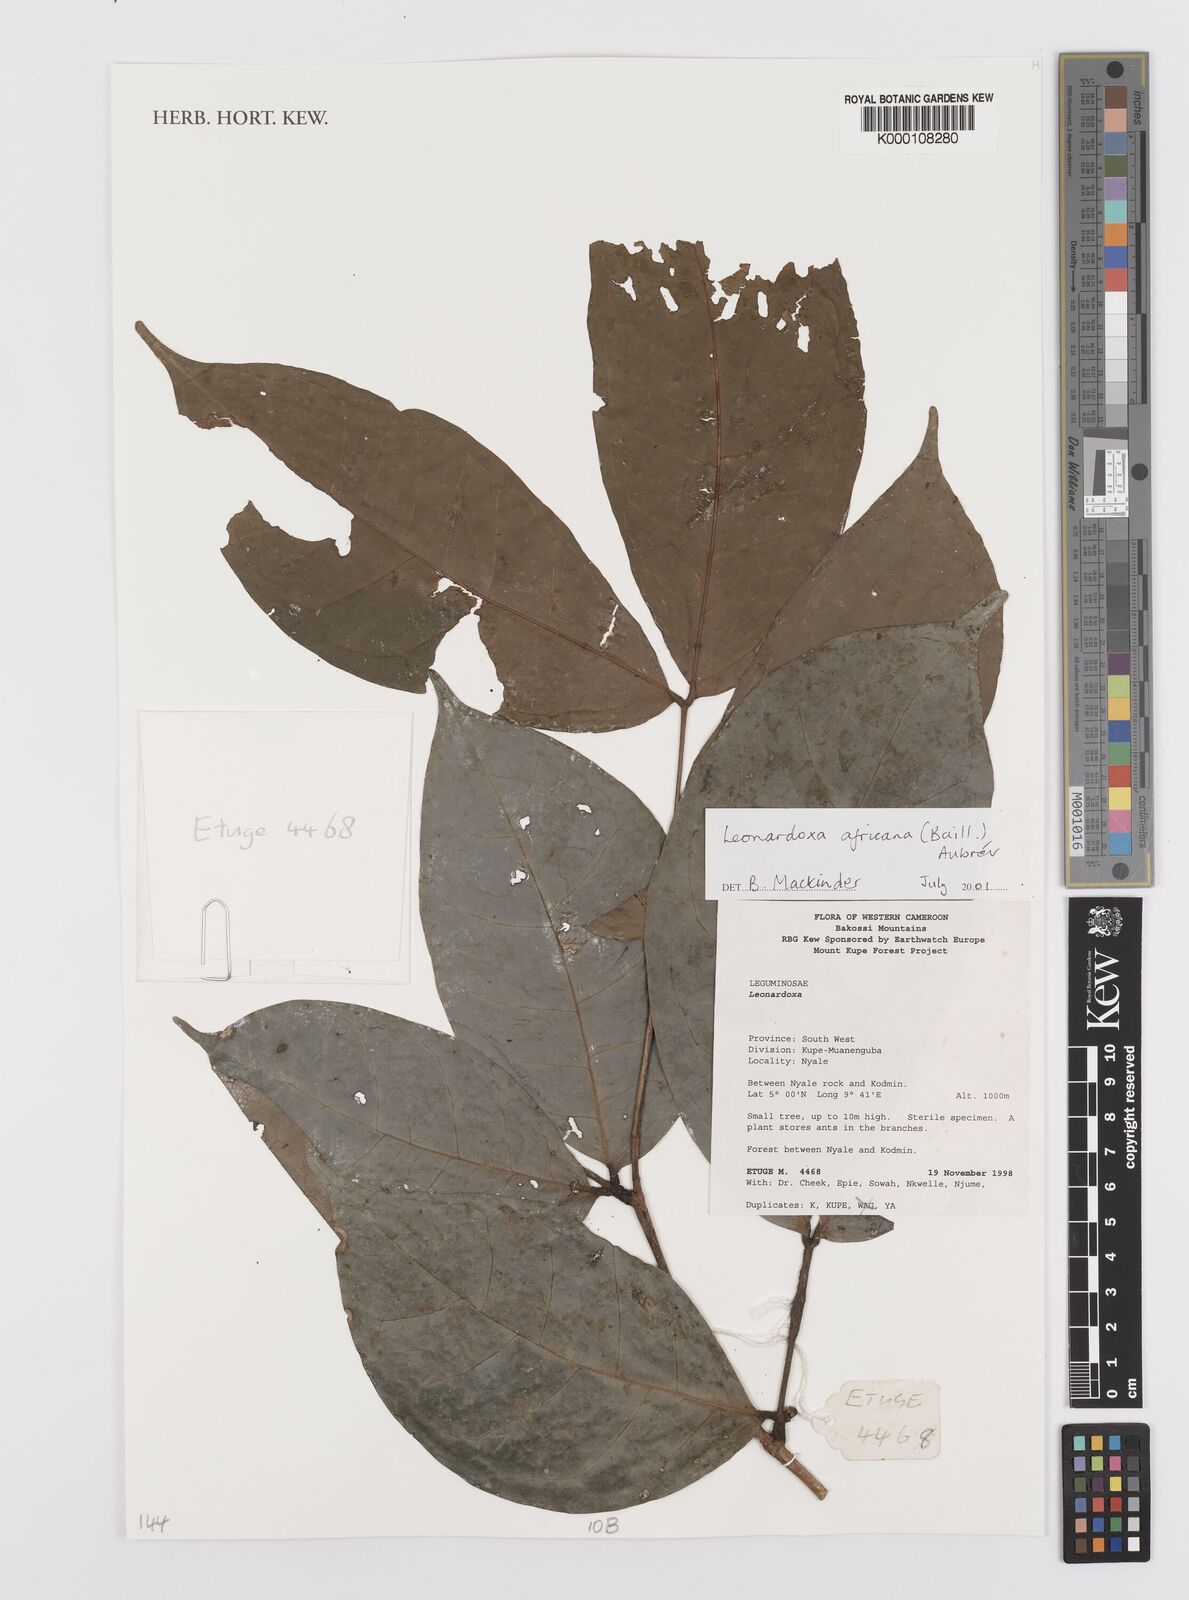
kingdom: Plantae
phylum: Tracheophyta
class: Magnoliopsida
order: Fabales
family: Fabaceae
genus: Leonardoxa
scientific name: Leonardoxa
